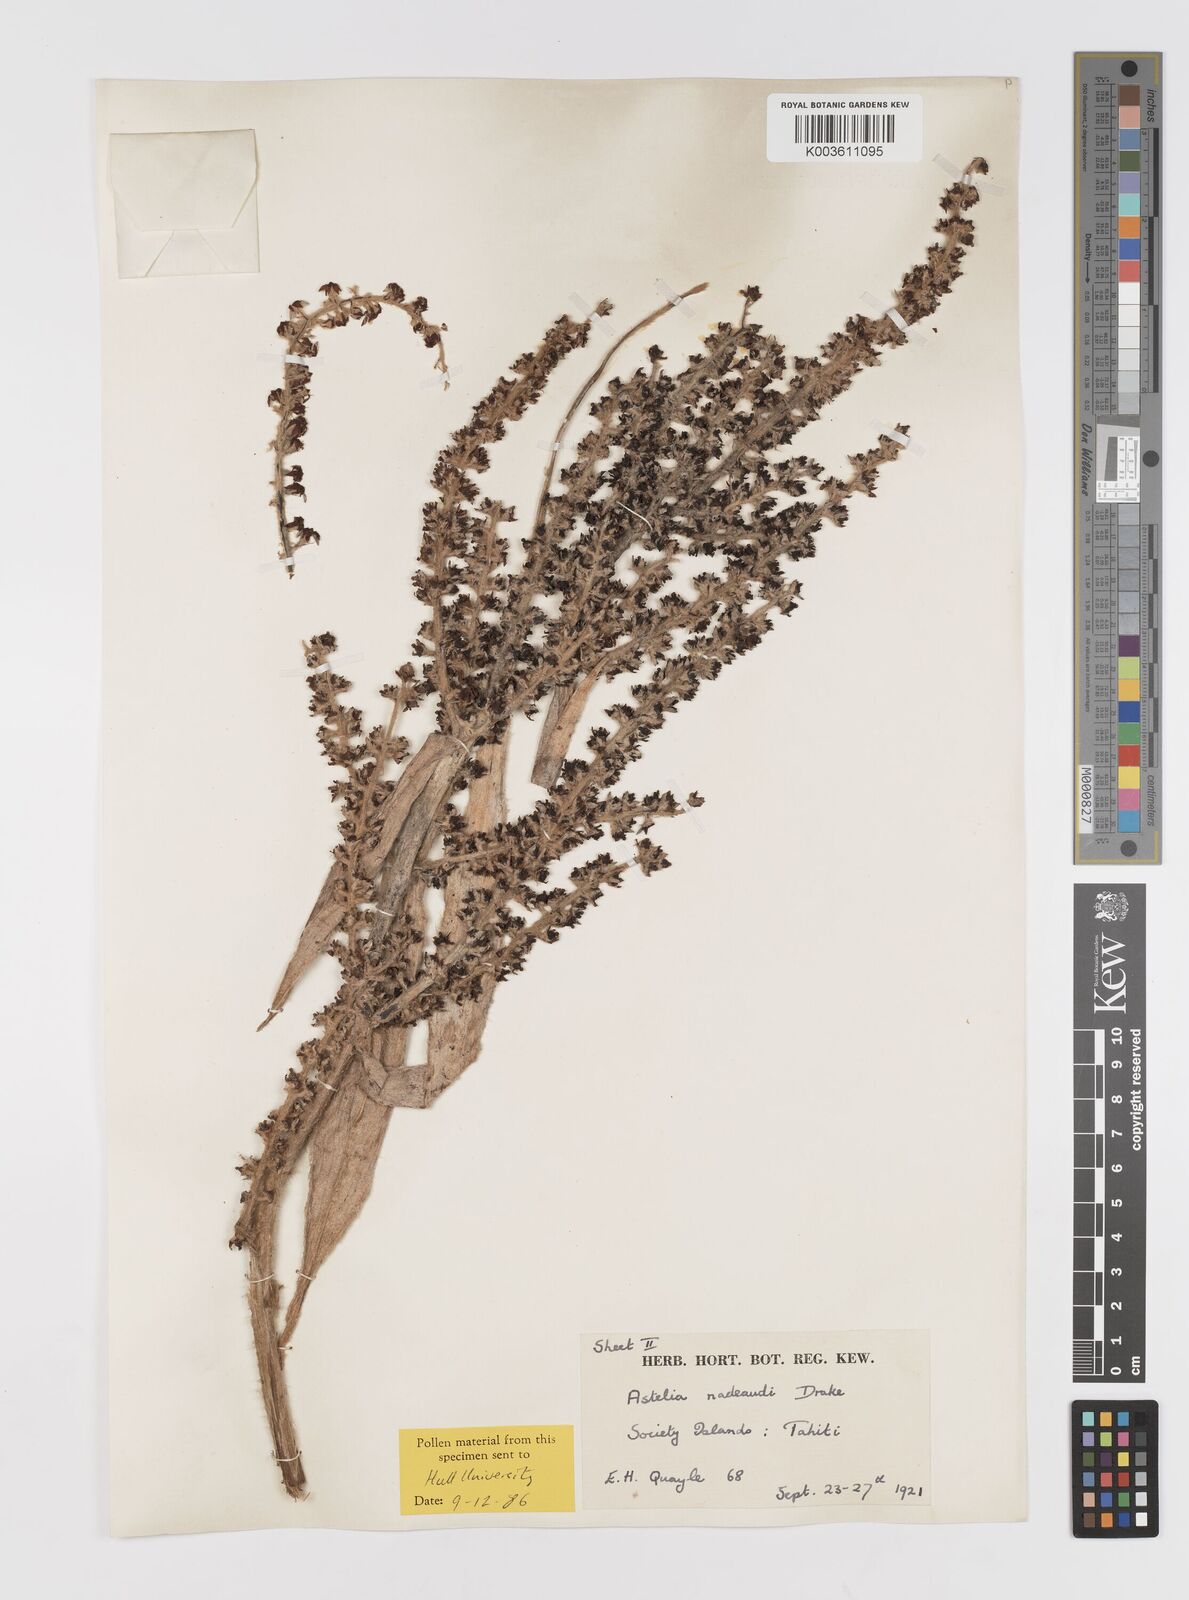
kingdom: Plantae
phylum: Tracheophyta
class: Liliopsida
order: Asparagales
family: Asteliaceae
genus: Astelia
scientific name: Astelia nadeaudii
